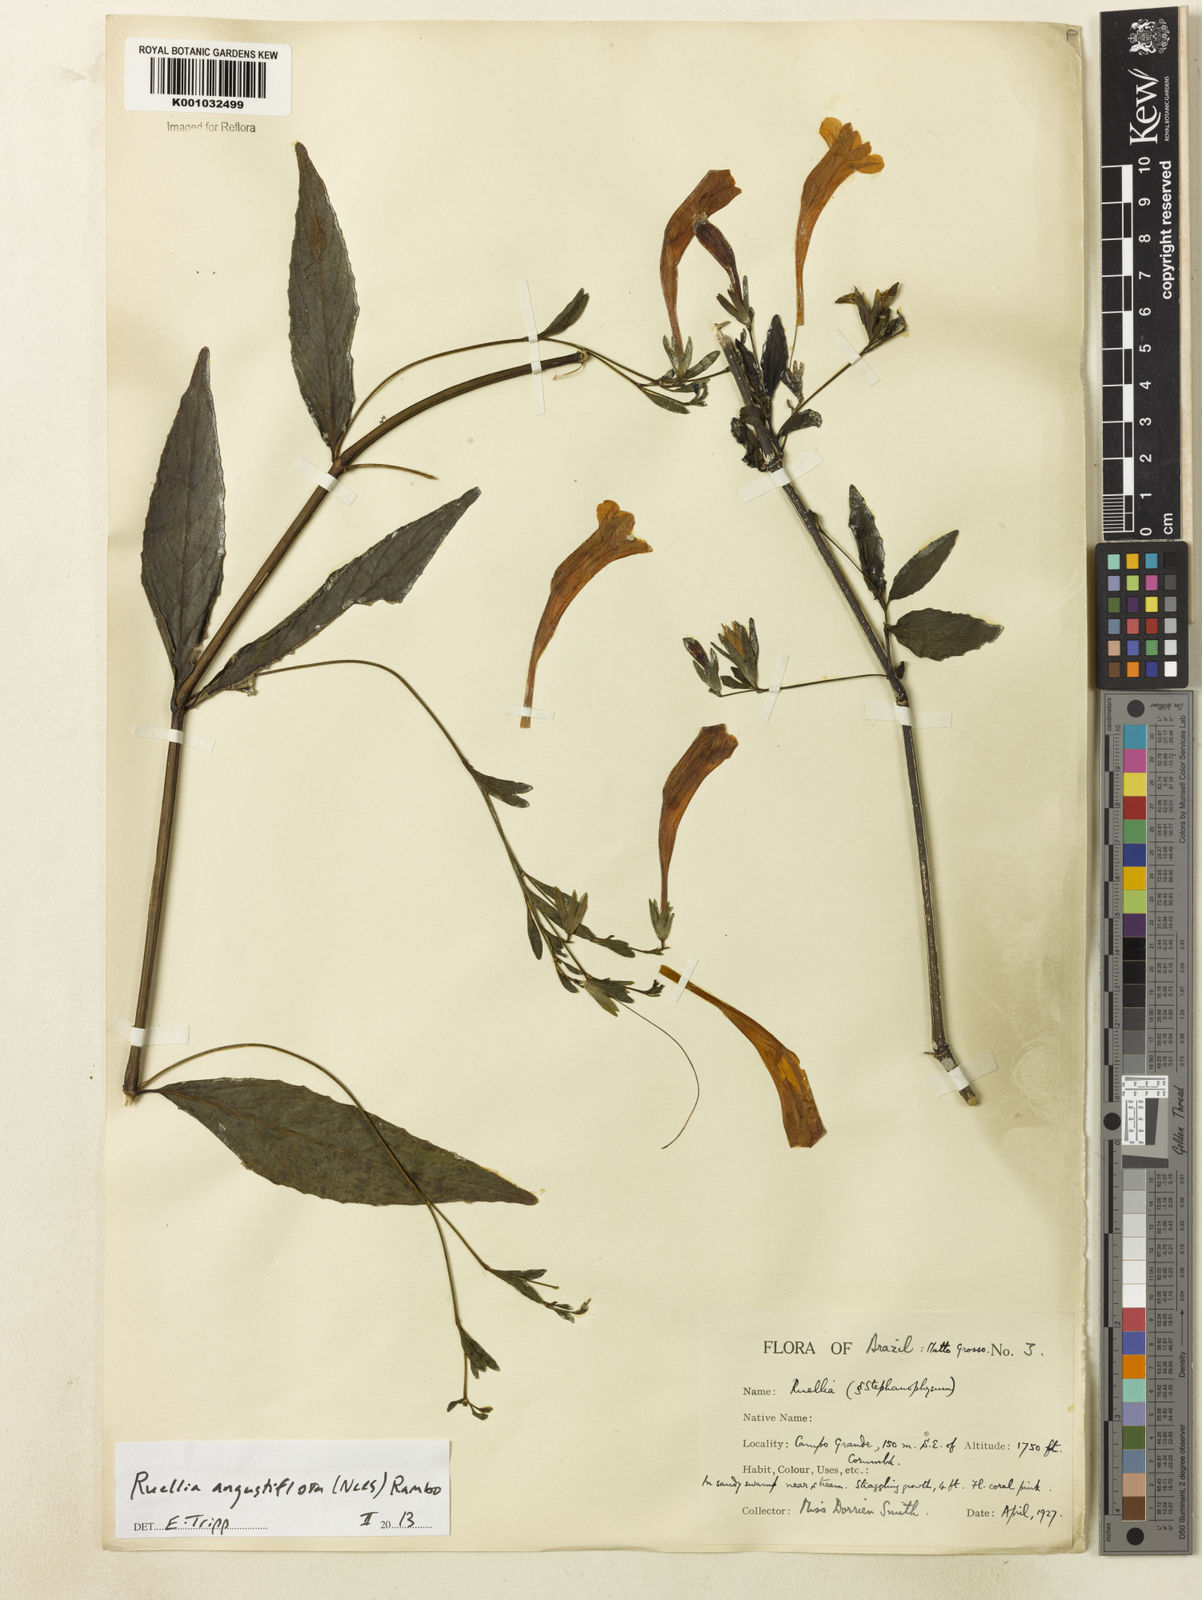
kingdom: Plantae
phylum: Tracheophyta
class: Magnoliopsida
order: Lamiales
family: Acanthaceae
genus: Ruellia
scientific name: Ruellia angustiflora
